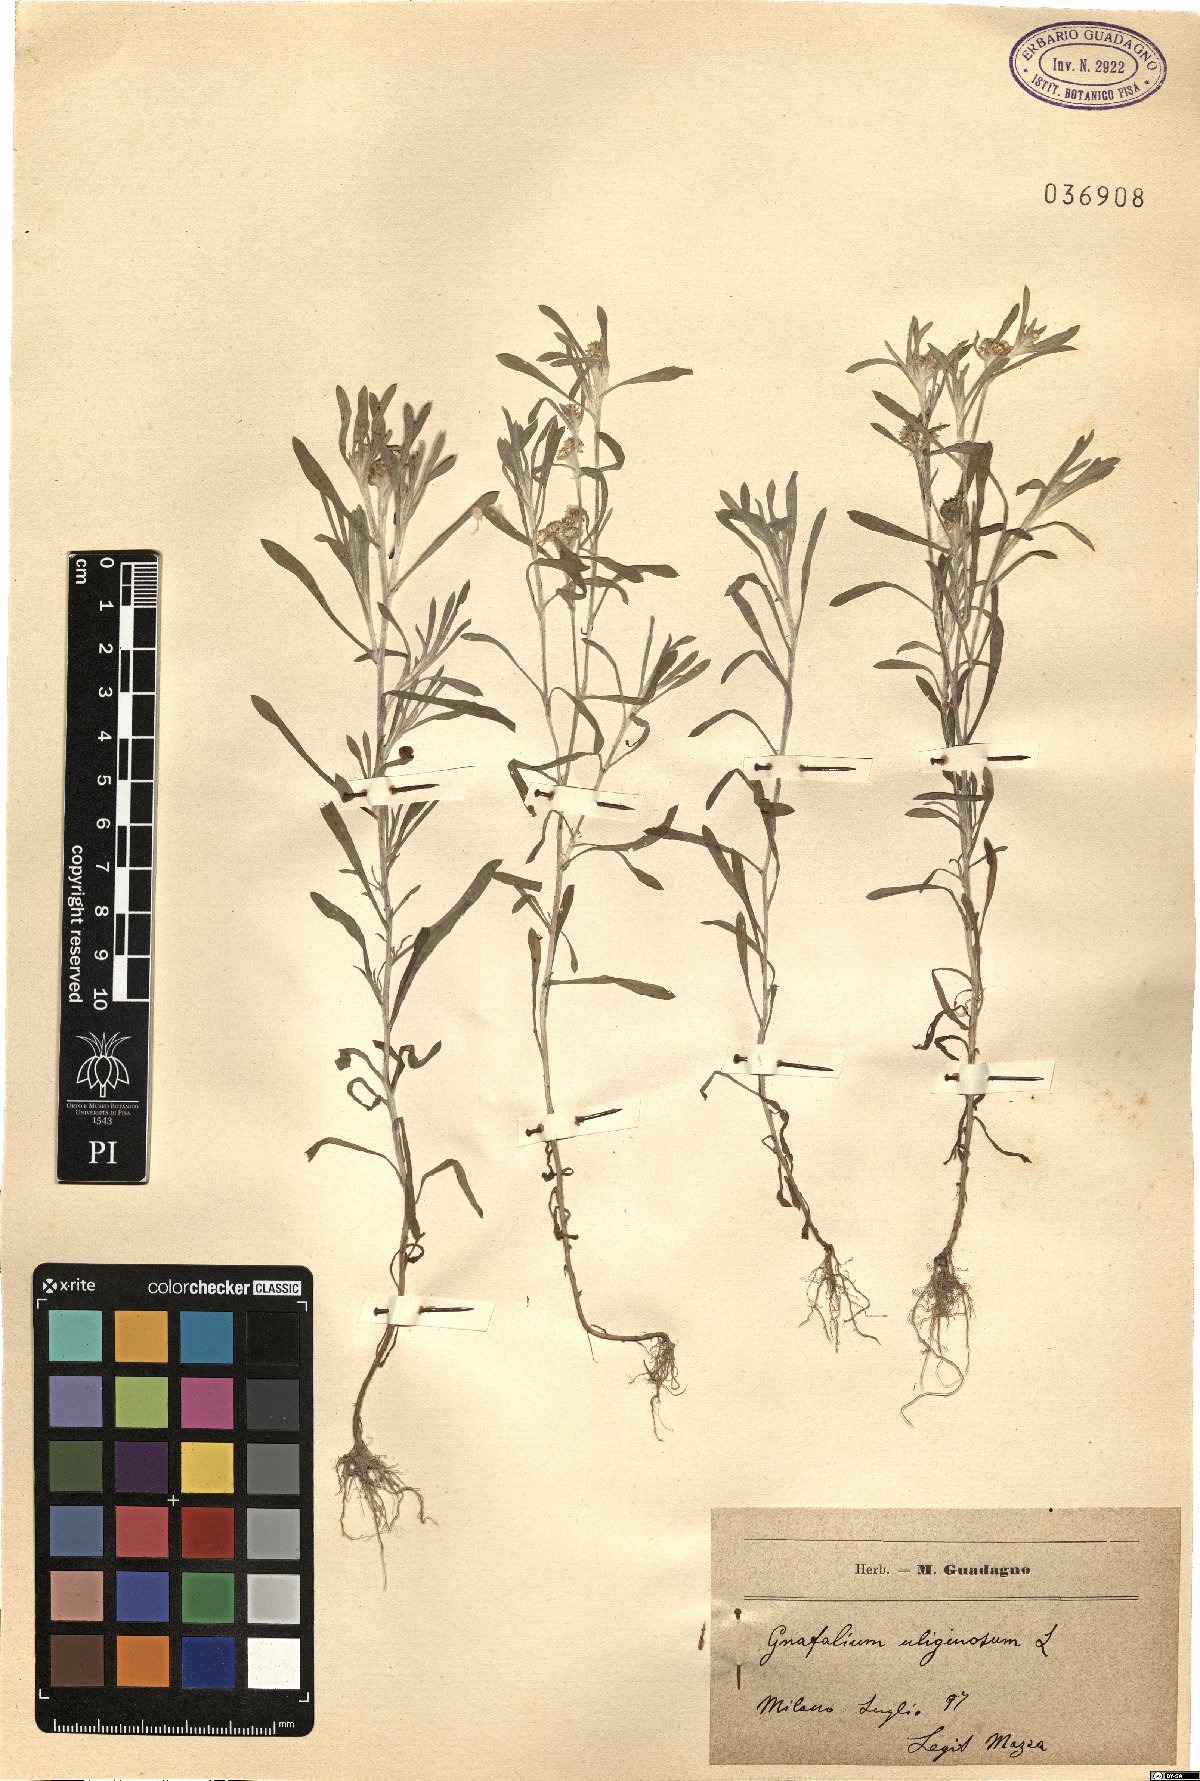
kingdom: Plantae
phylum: Tracheophyta
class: Magnoliopsida
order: Asterales
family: Asteraceae
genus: Gnaphalium
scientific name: Gnaphalium uliginosum
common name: Marsh cudweed
